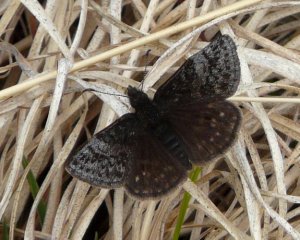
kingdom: Animalia
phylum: Arthropoda
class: Insecta
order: Lepidoptera
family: Hesperiidae
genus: Erynnis
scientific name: Erynnis icelus
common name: Dreamy Duskywing
